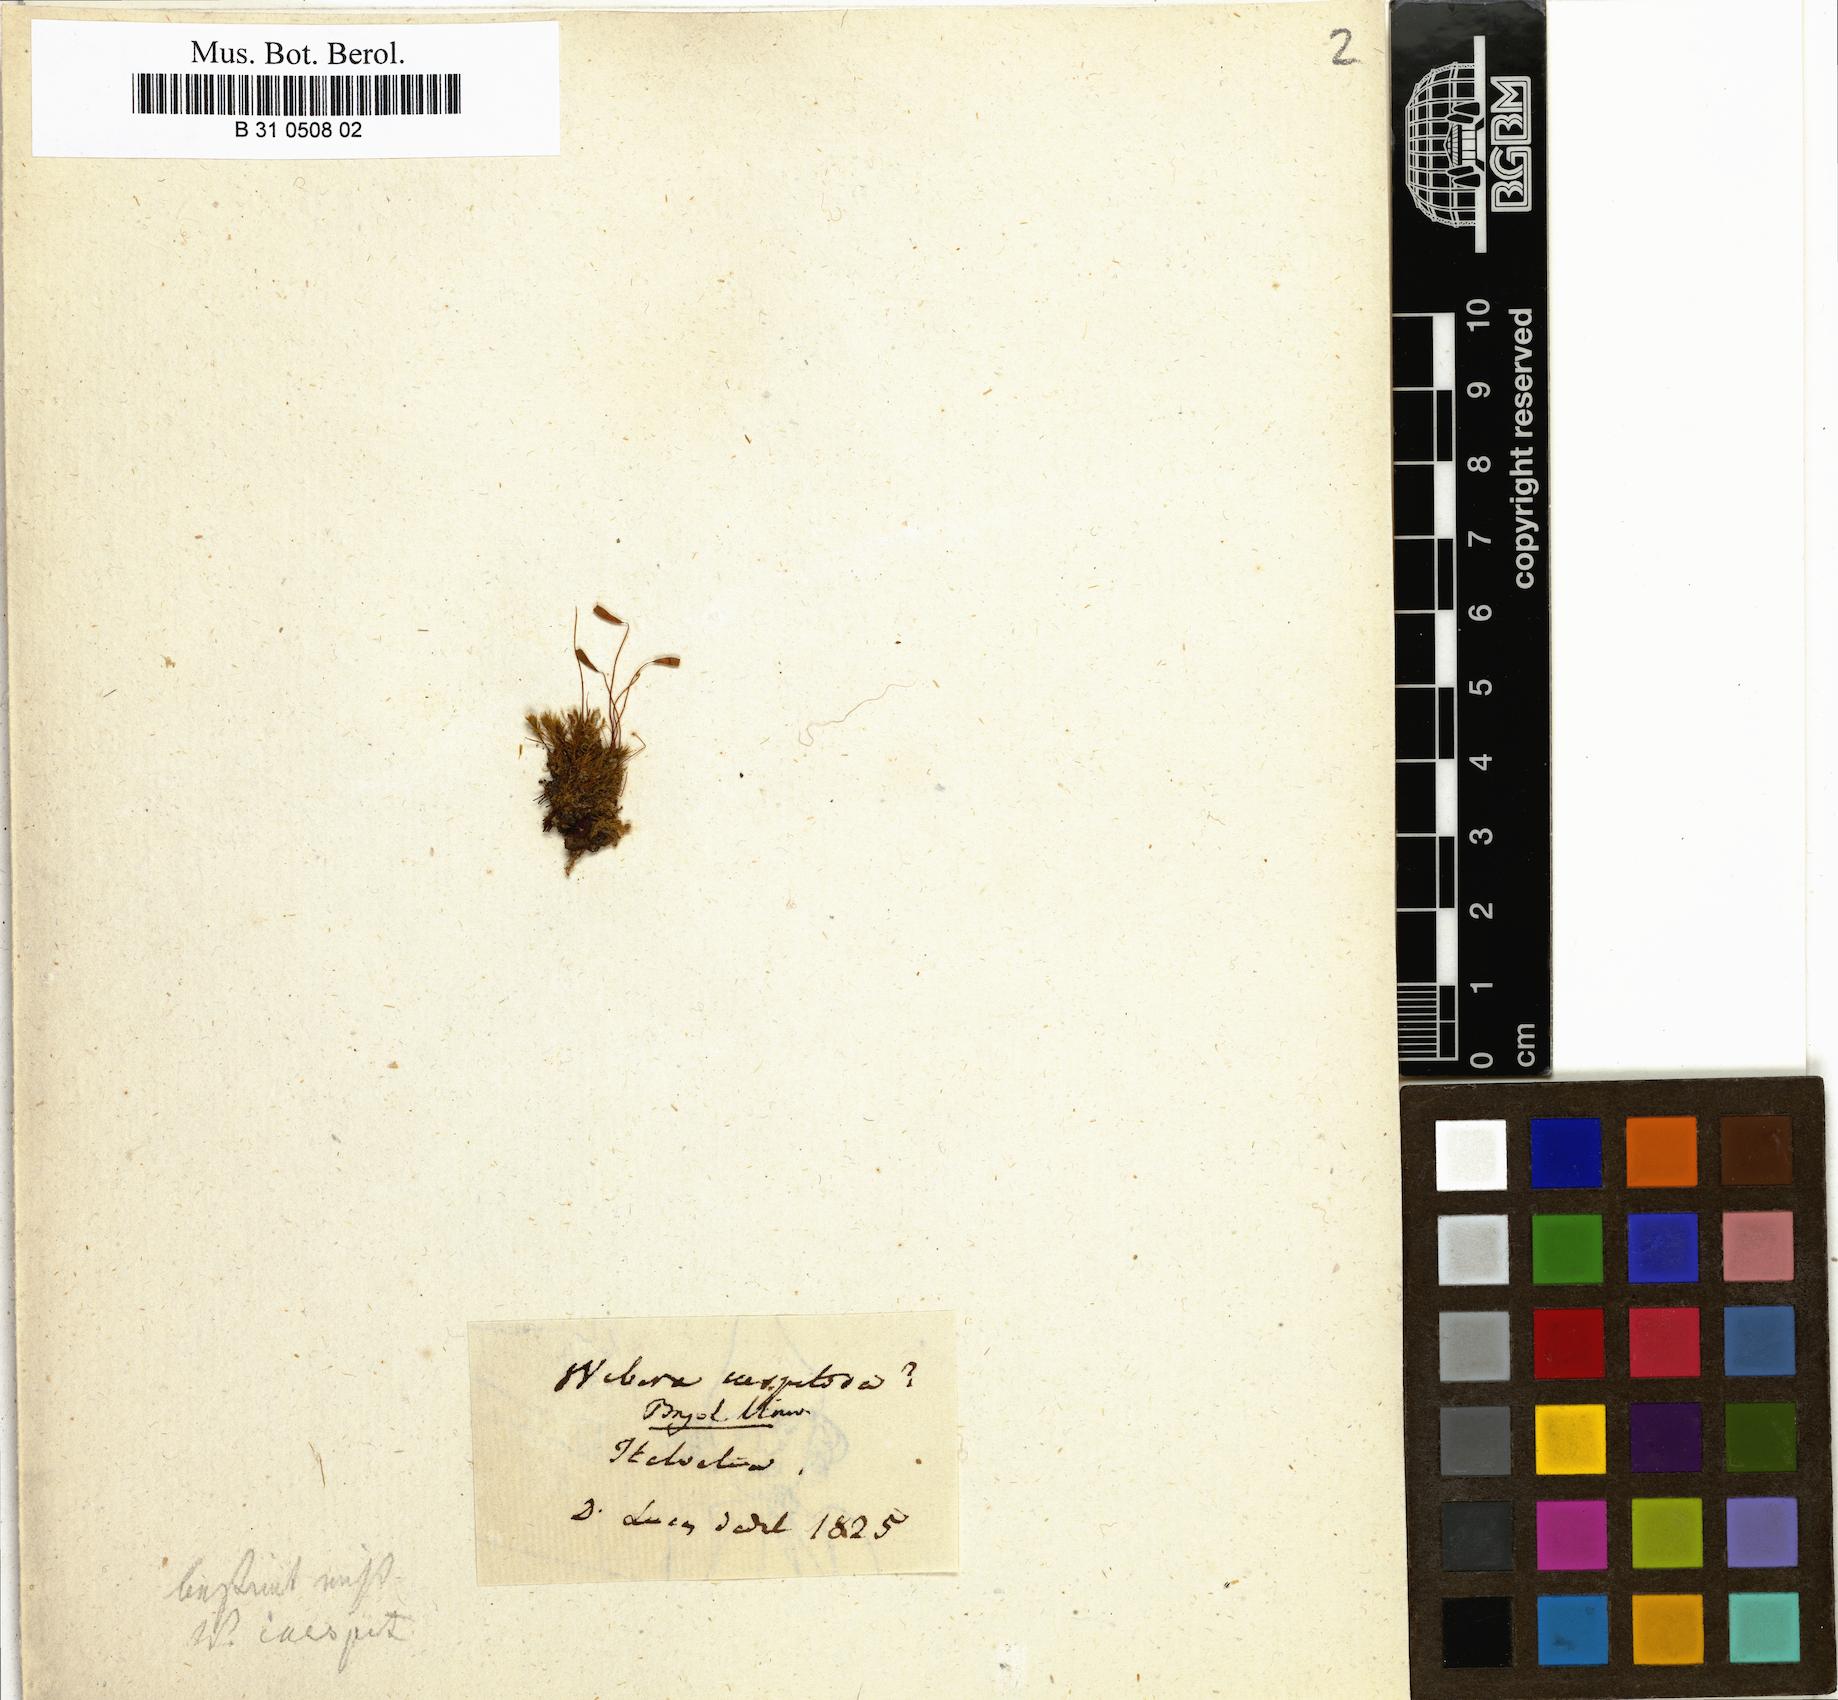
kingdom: Plantae
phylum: Bryophyta
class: Bryopsida
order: Bryales
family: Mniaceae
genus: Pohlia
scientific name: Pohlia nutans
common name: Nodding thread-moss
